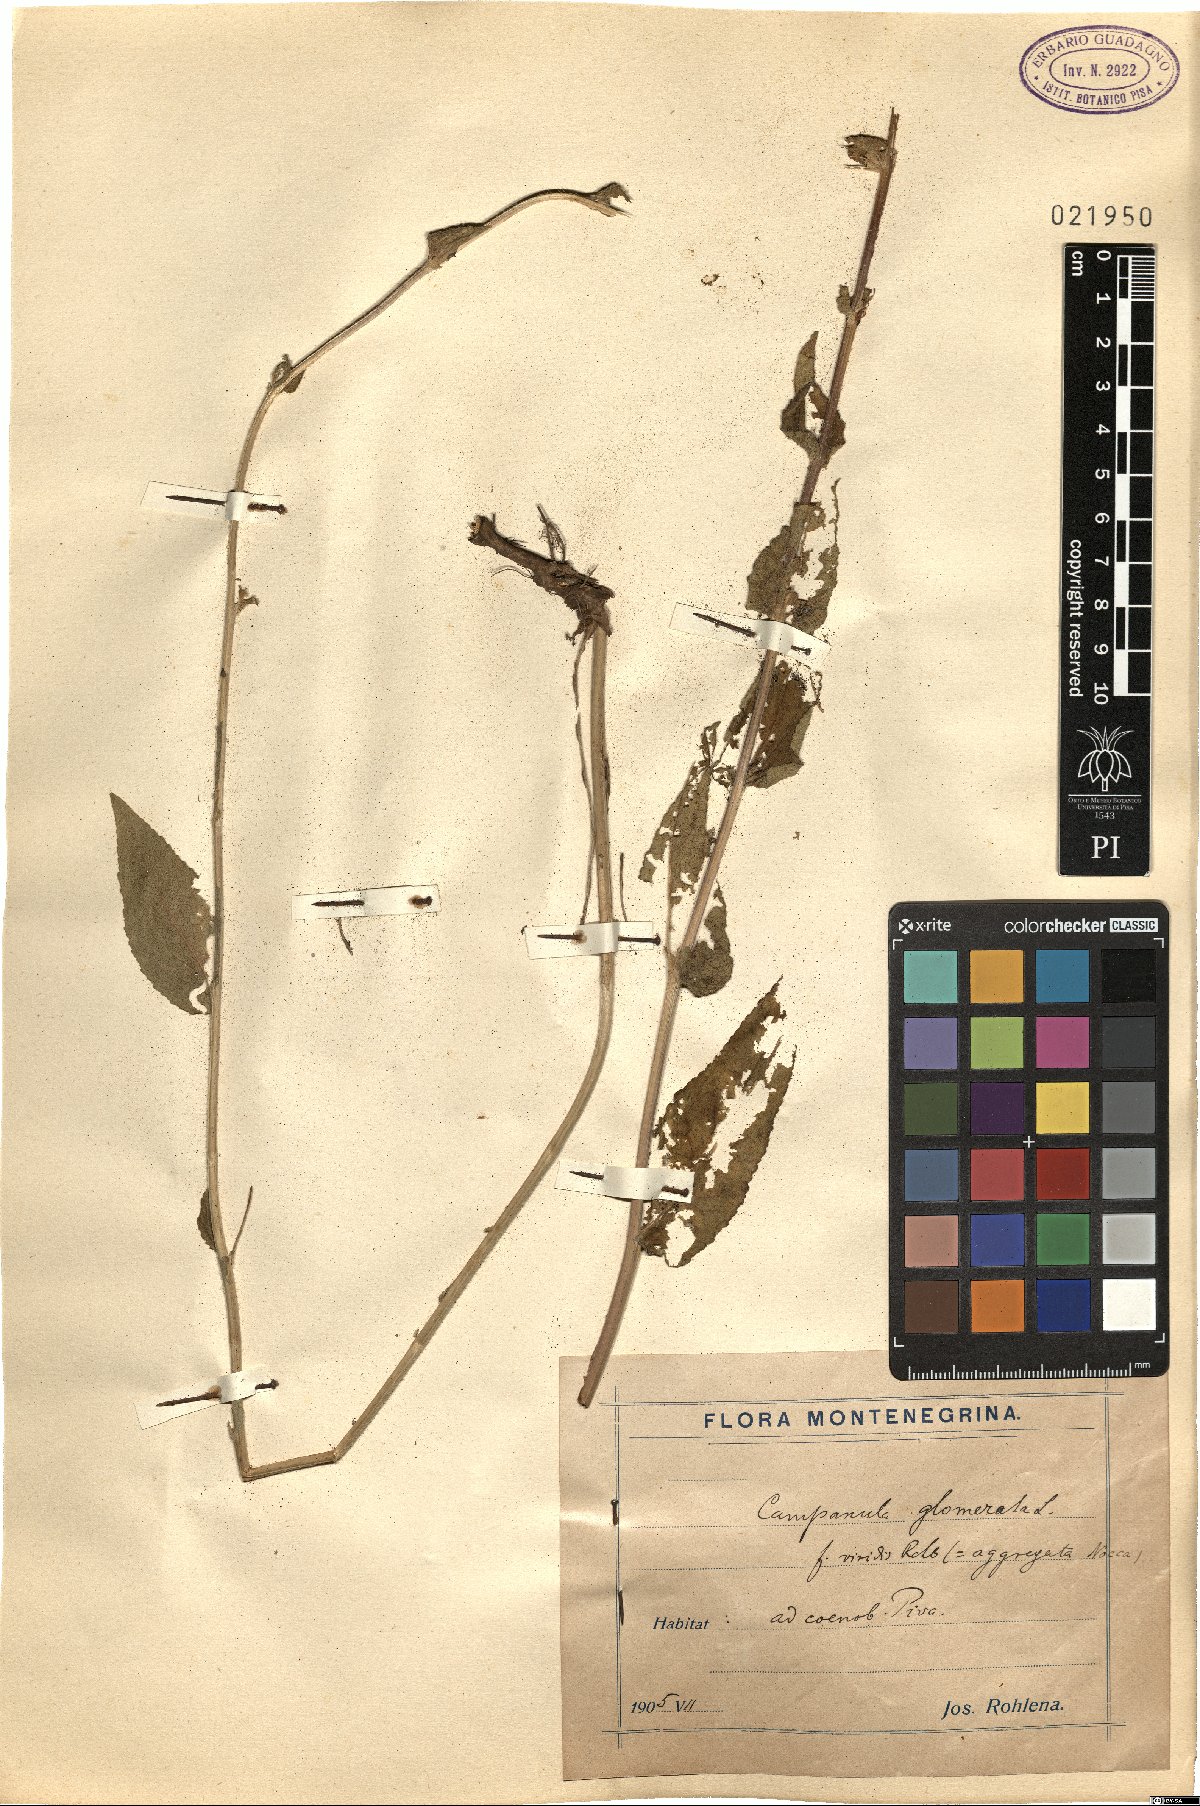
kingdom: Plantae
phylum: Tracheophyta
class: Magnoliopsida
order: Asterales
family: Campanulaceae
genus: Campanula
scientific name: Campanula glomerata
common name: Clustered bellflower
